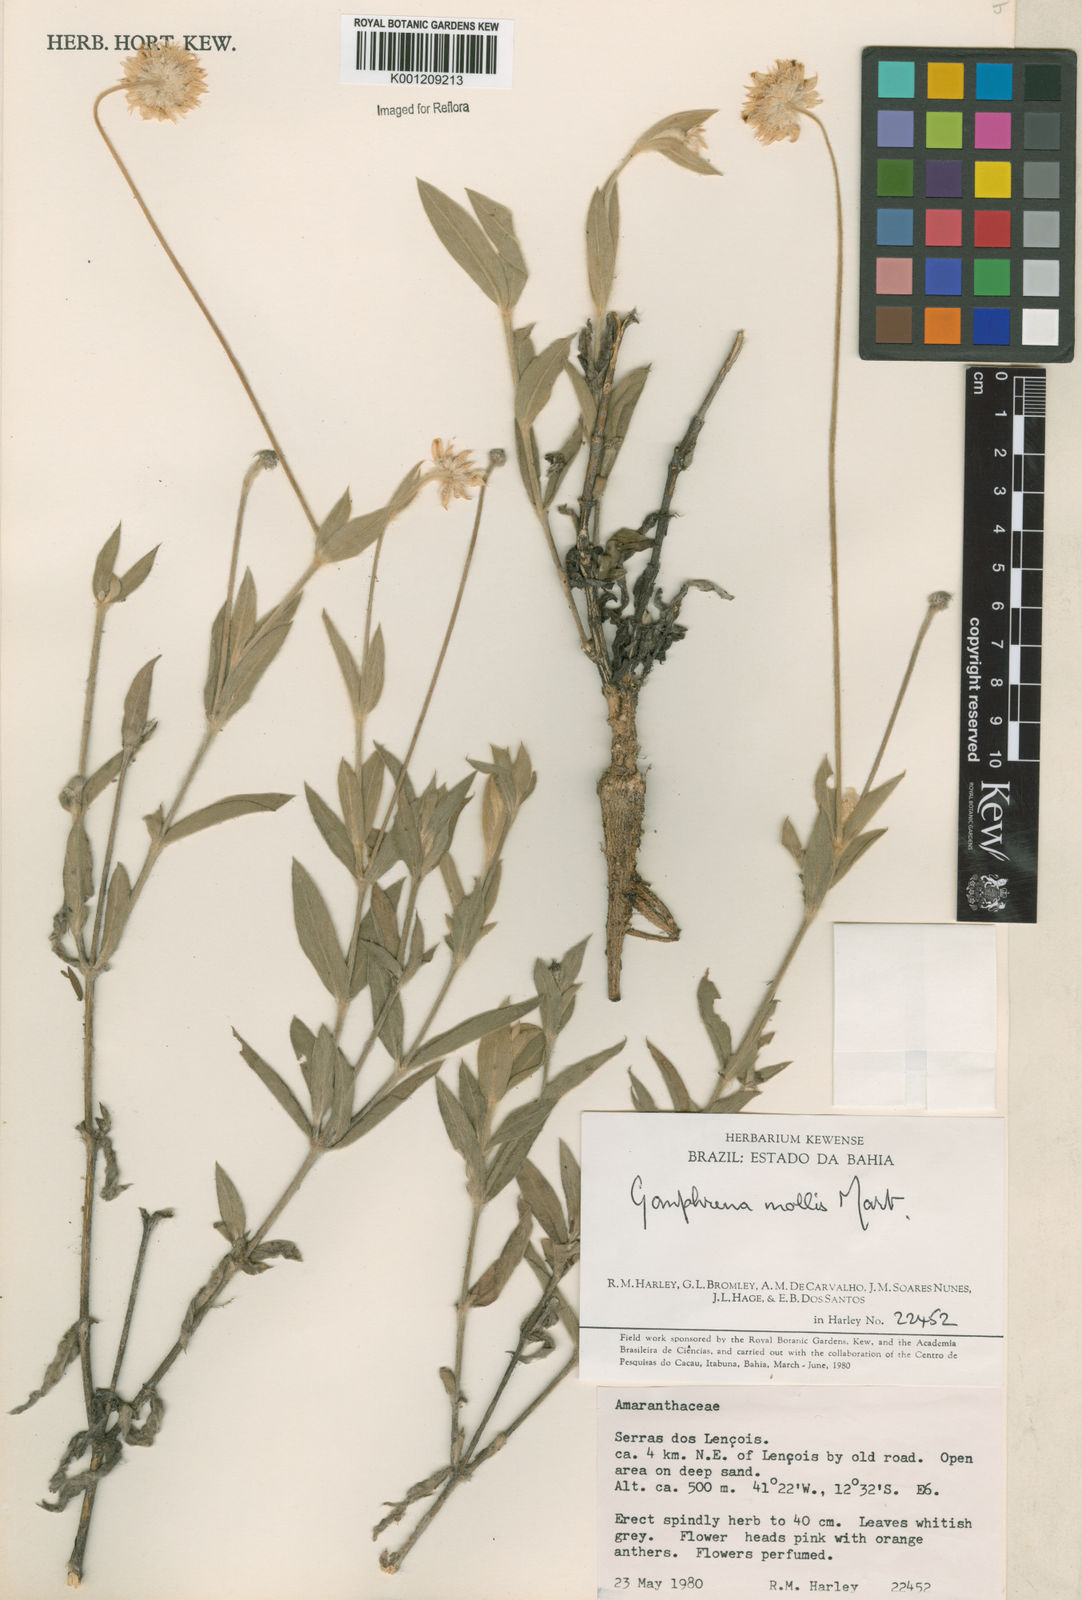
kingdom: Plantae
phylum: Tracheophyta
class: Magnoliopsida
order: Caryophyllales
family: Amaranthaceae
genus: Gomphrena
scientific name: Gomphrena mollis
